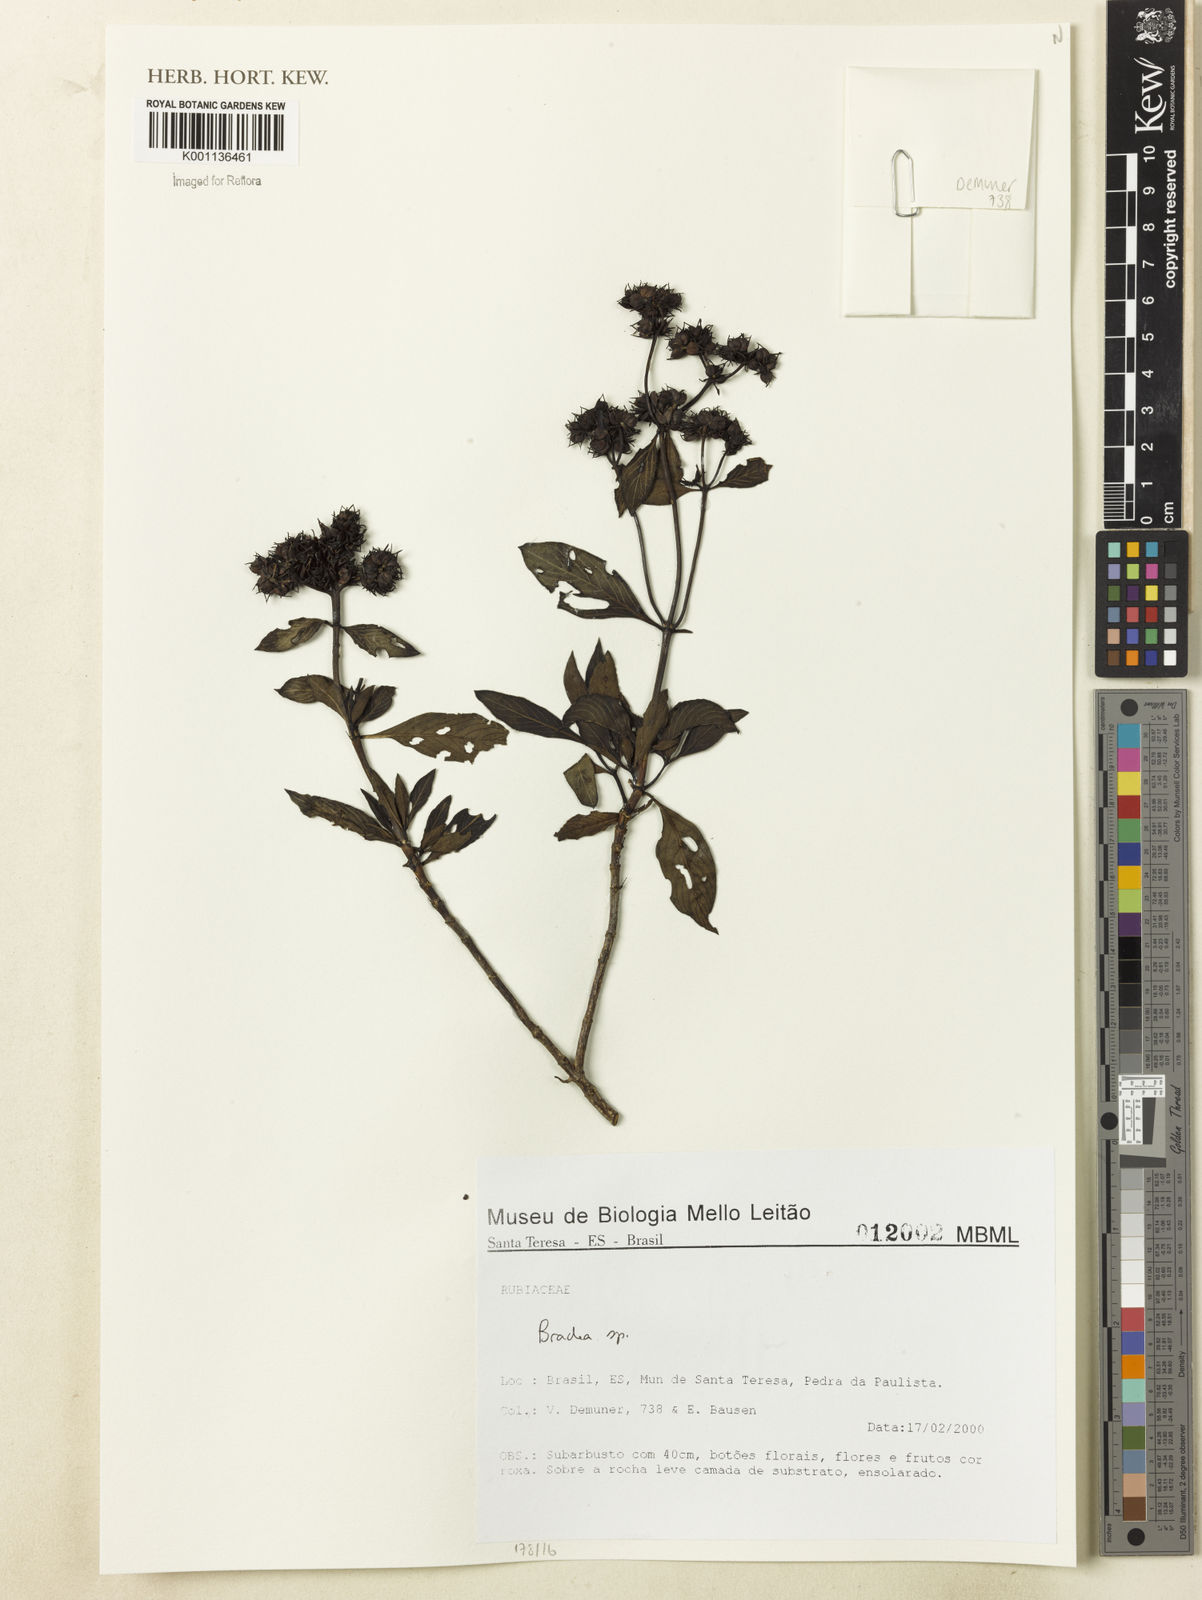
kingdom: Plantae
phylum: Tracheophyta
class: Magnoliopsida
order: Gentianales
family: Rubiaceae
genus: Bradea
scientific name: Bradea
